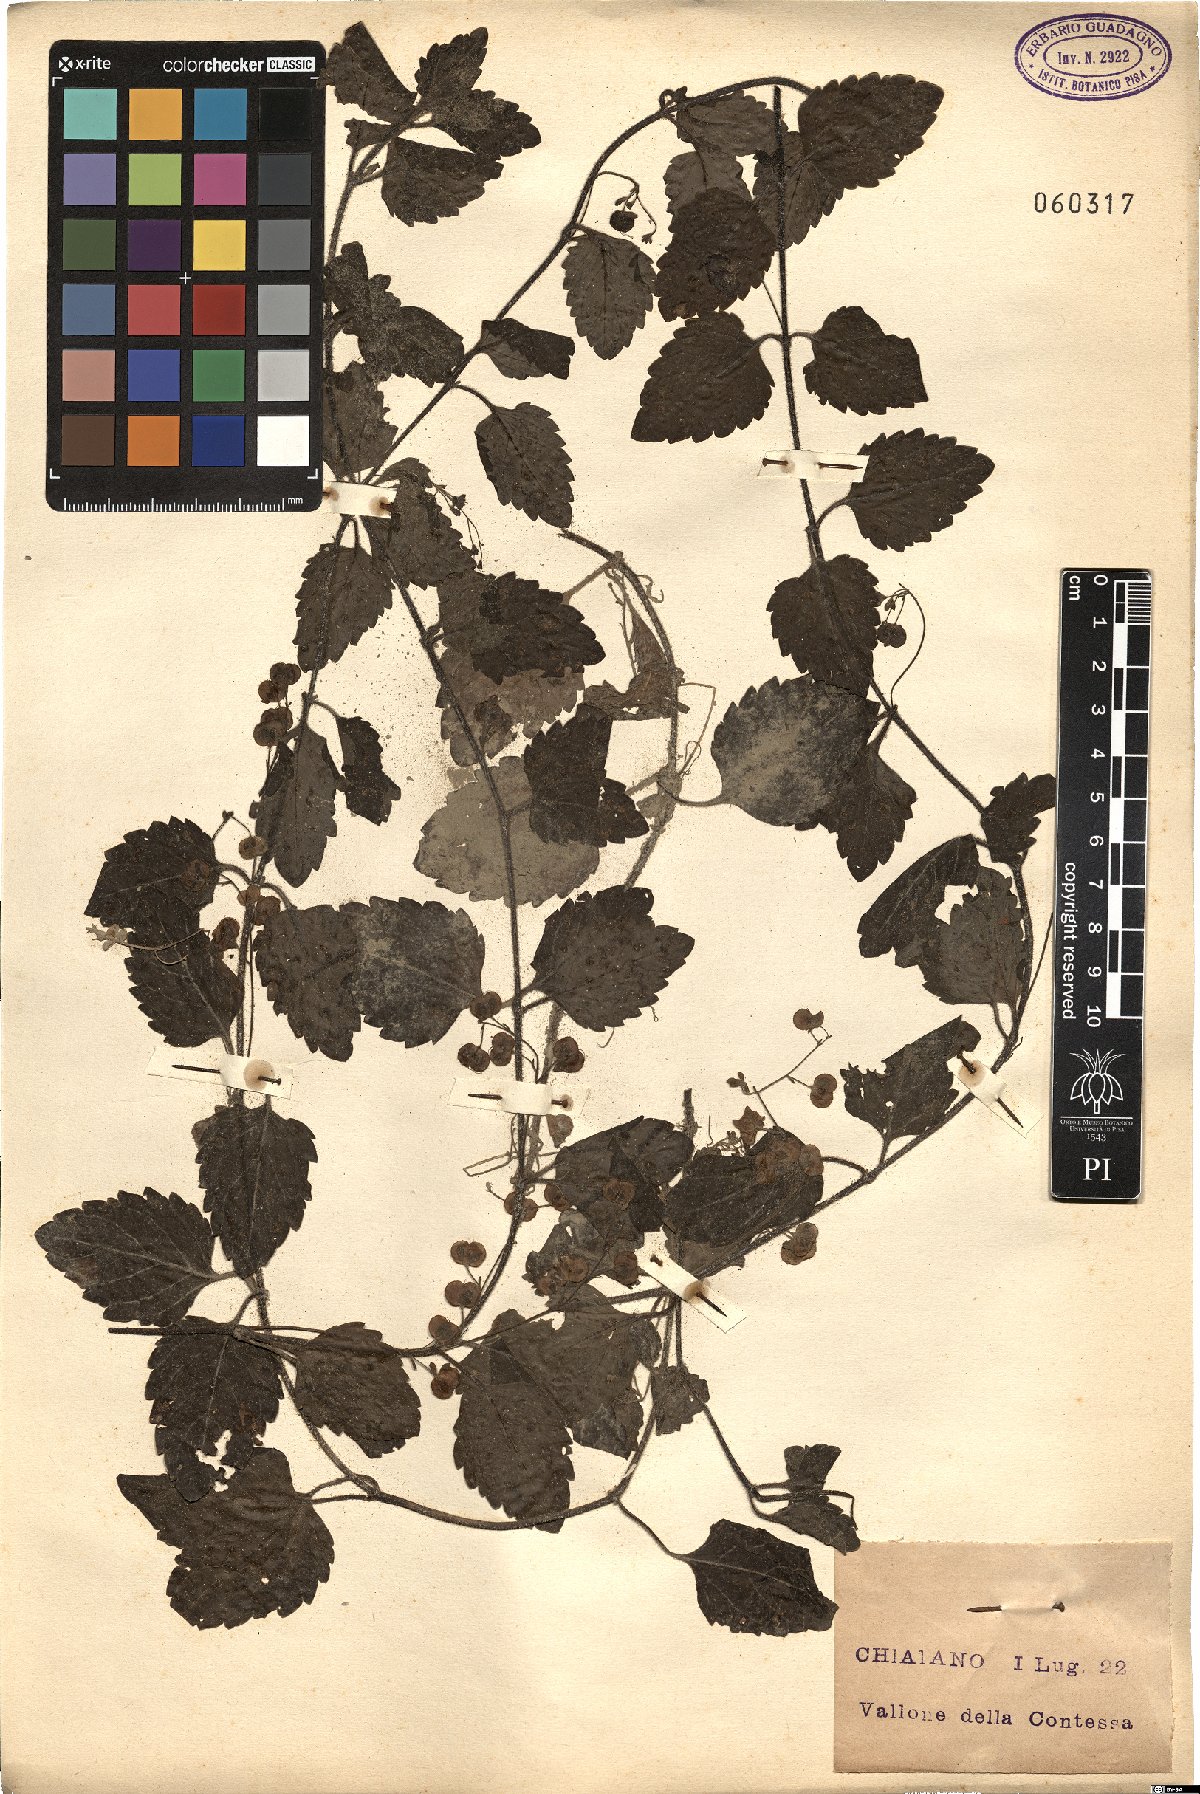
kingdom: Plantae
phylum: Tracheophyta
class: Magnoliopsida
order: Lamiales
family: Plantaginaceae
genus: Veronica
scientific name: Veronica
